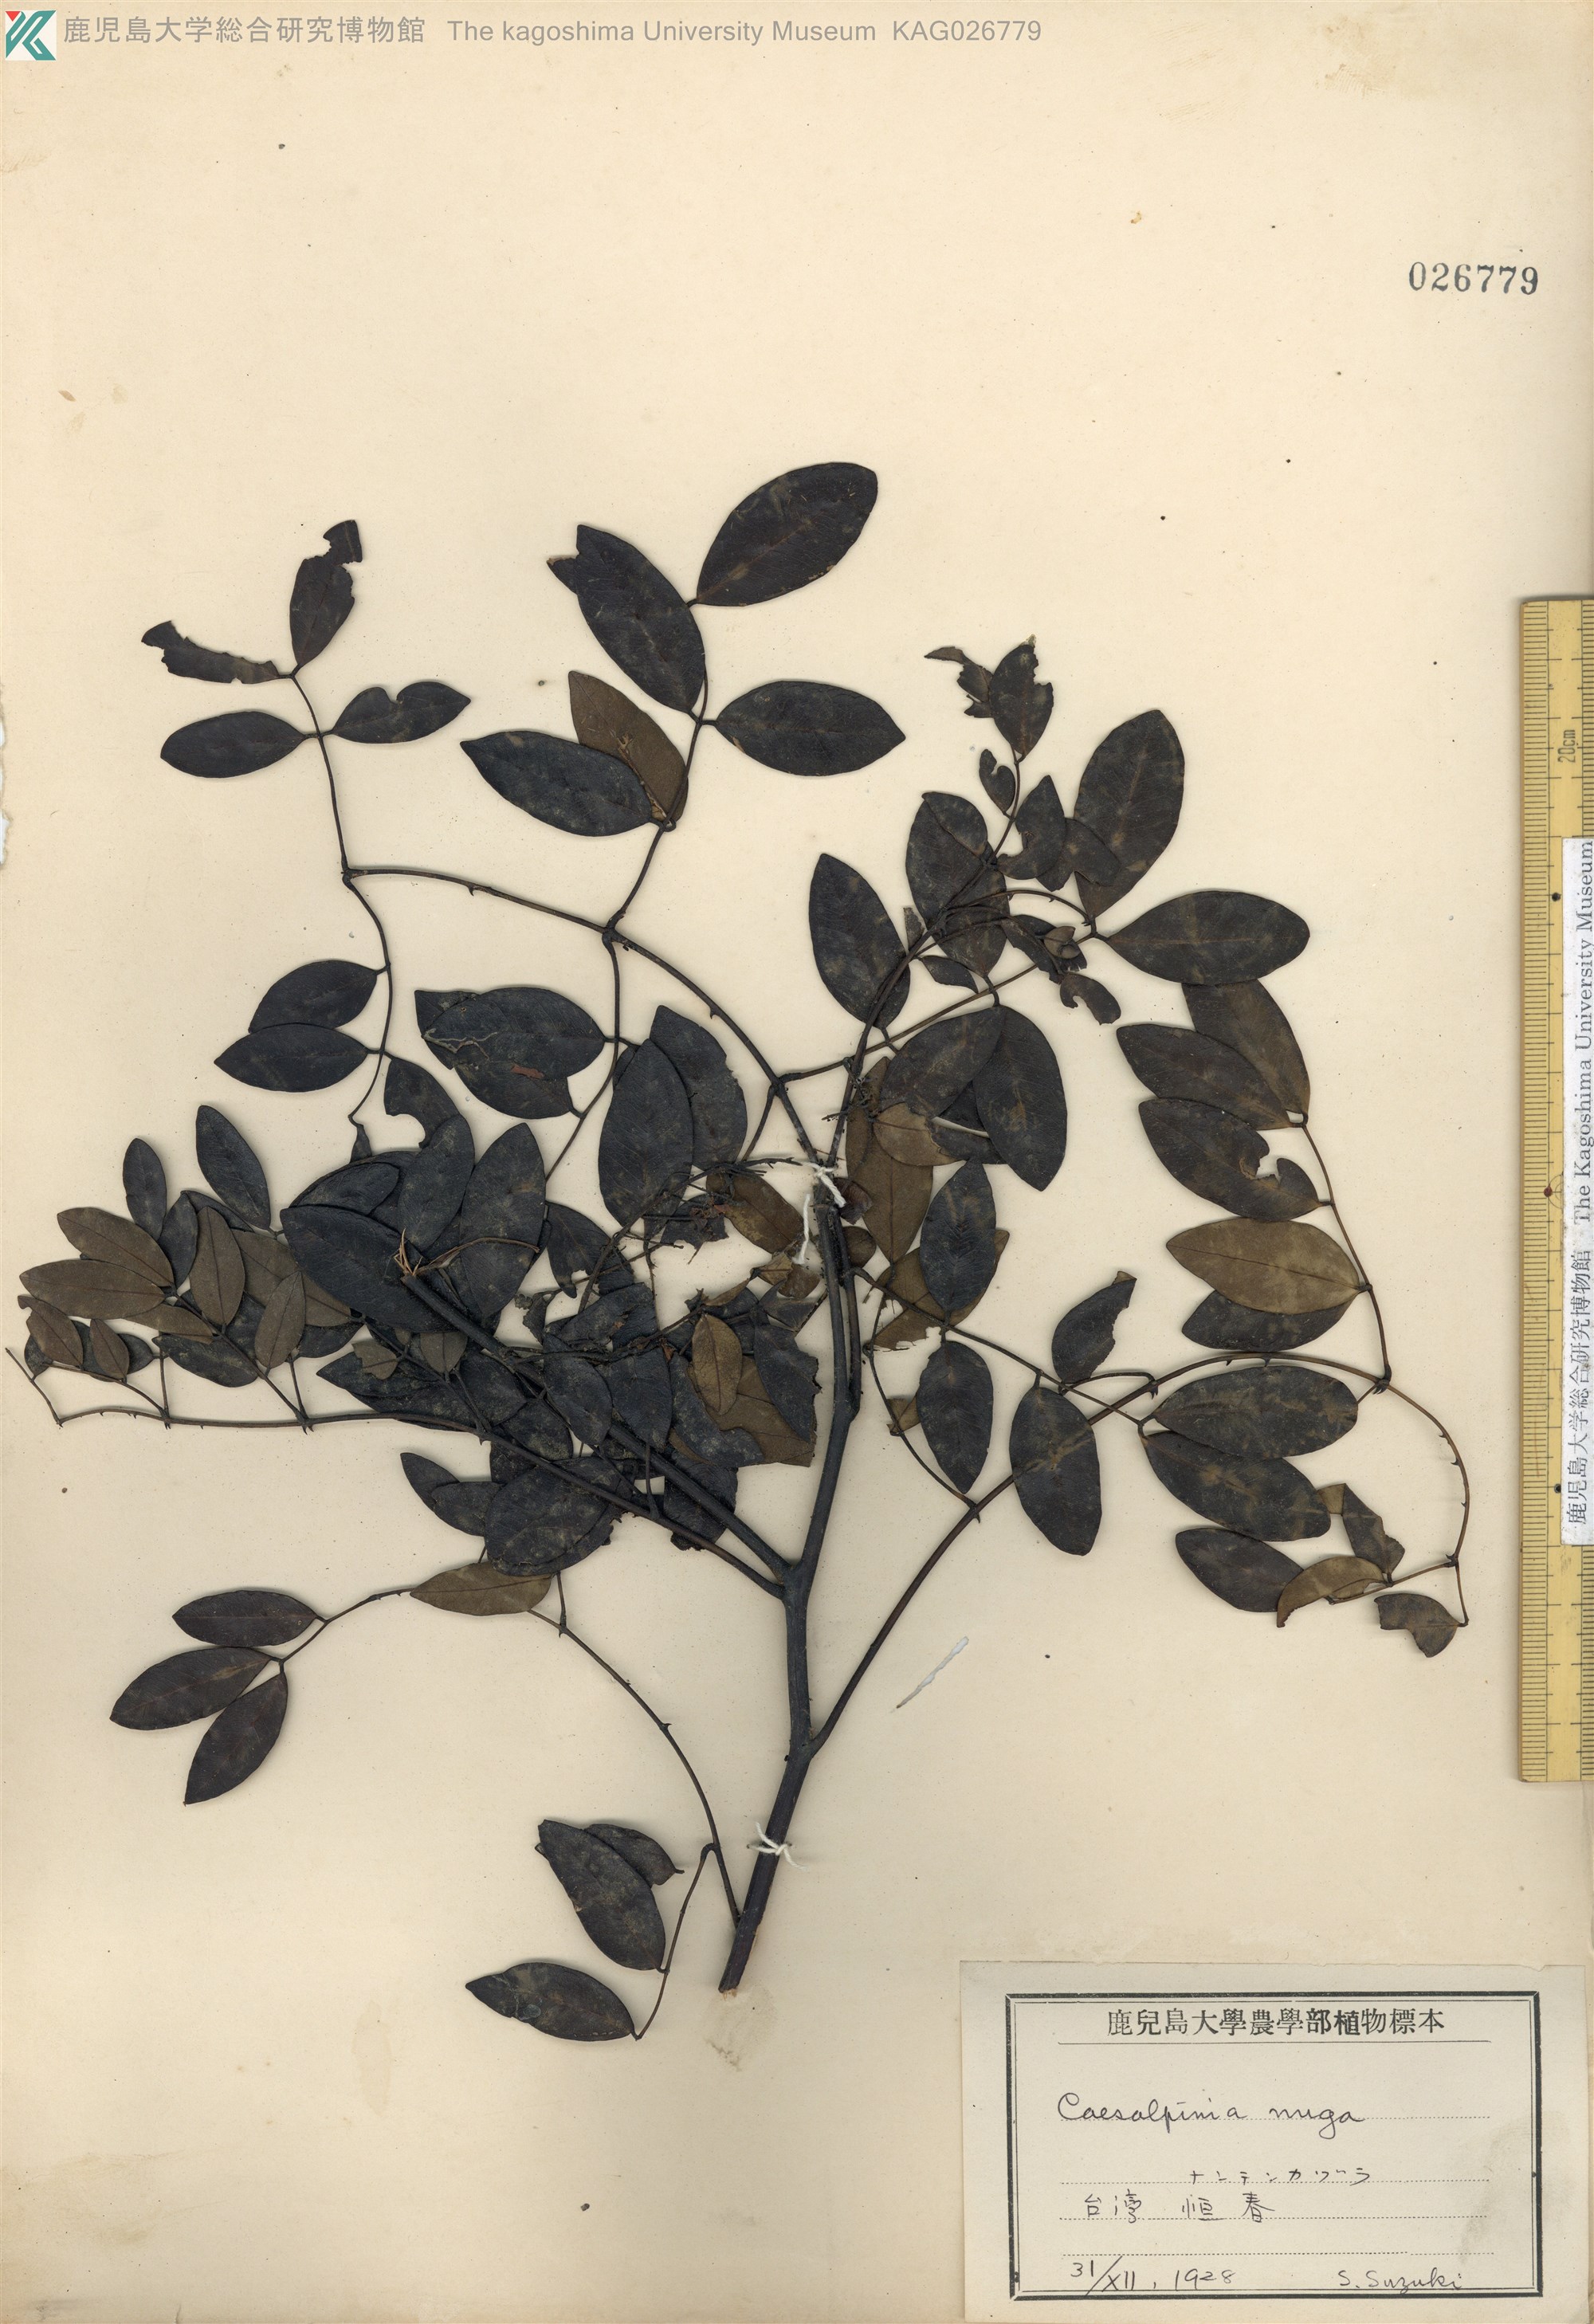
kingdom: Plantae
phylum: Tracheophyta
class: Magnoliopsida
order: Fabales
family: Fabaceae
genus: Caesalpinia
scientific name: Caesalpinia Ticanto crista
